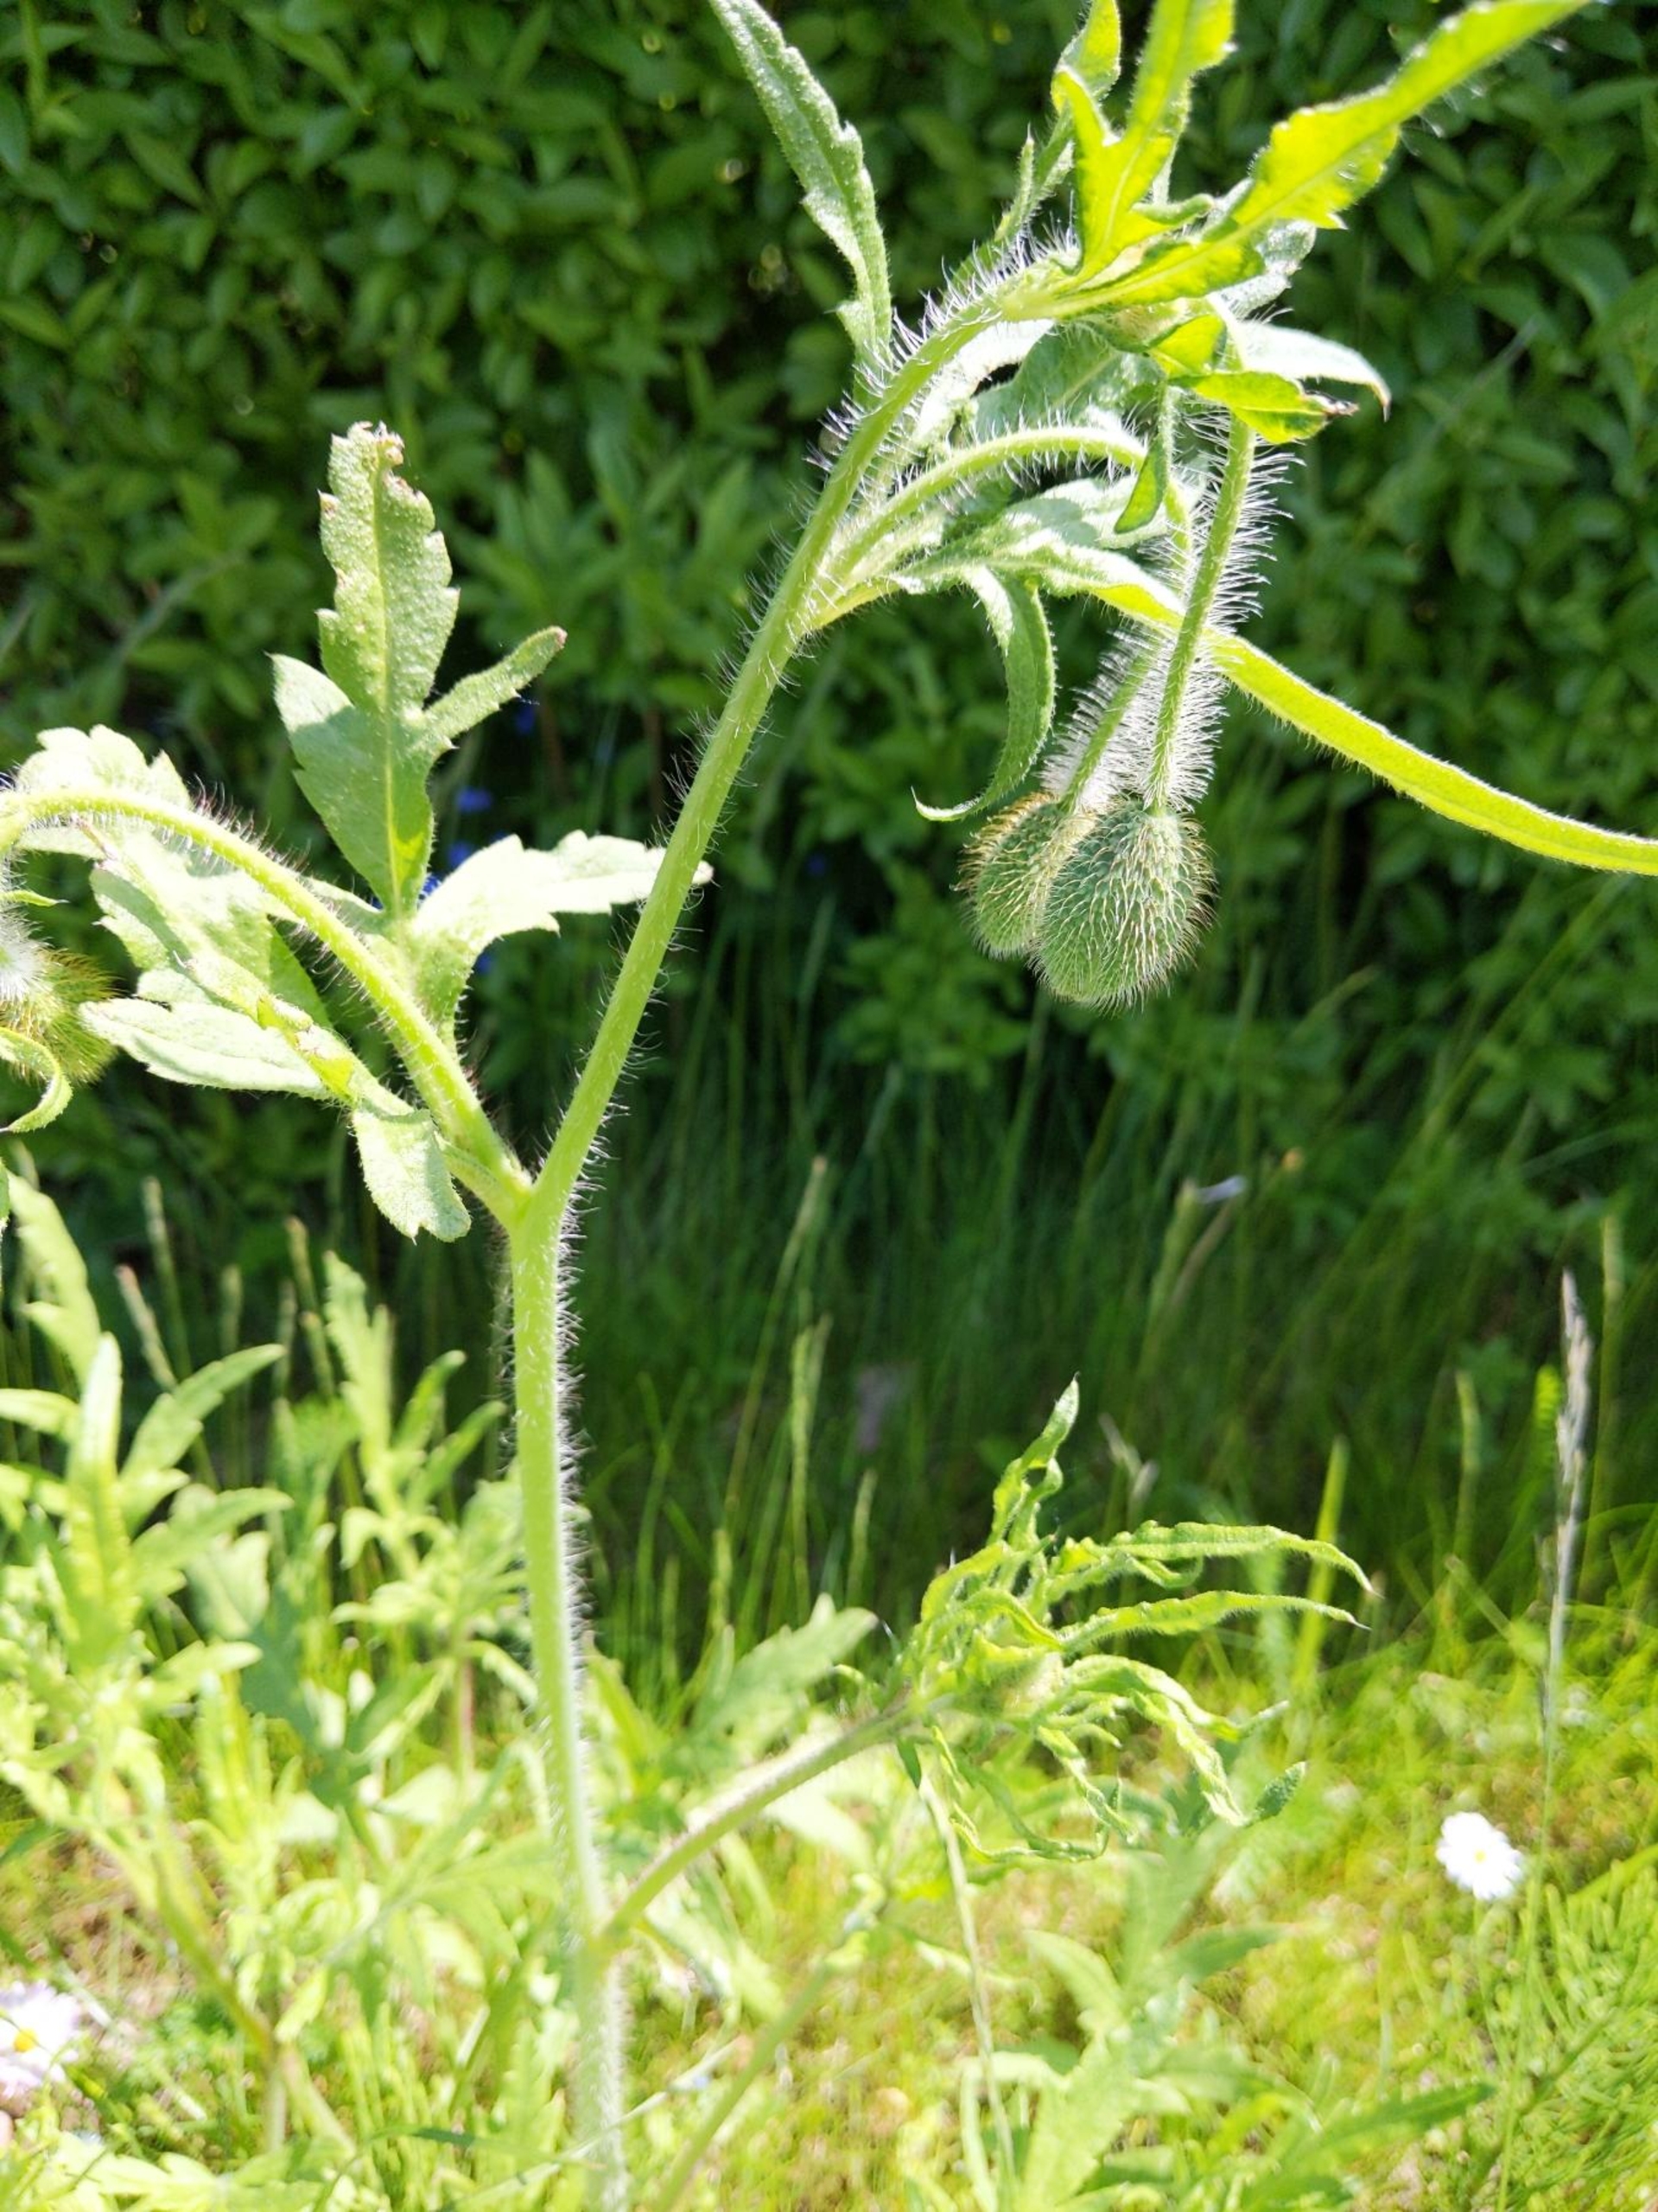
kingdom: Plantae
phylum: Tracheophyta
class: Magnoliopsida
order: Ranunculales
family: Papaveraceae
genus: Papaver
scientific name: Papaver rhoeas
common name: Korn-valmue
